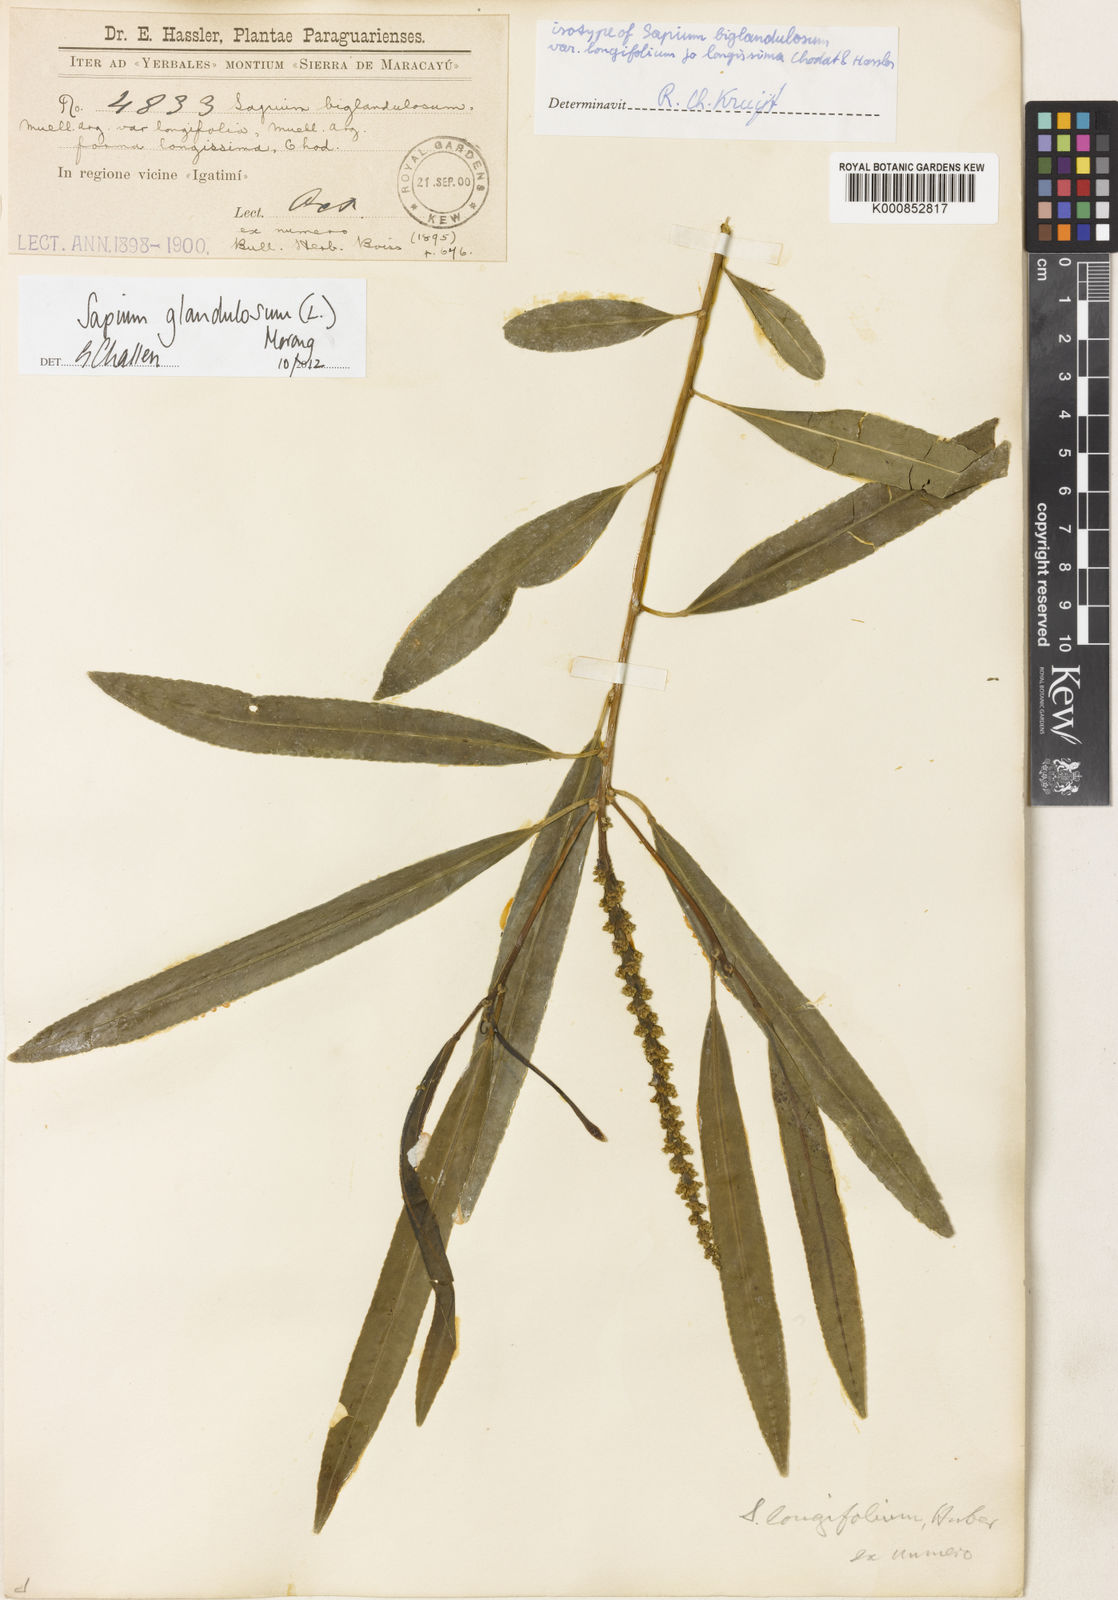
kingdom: Plantae
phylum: Tracheophyta
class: Magnoliopsida
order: Malpighiales
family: Euphorbiaceae
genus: Sapium
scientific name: Sapium glandulosum
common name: Milktree
